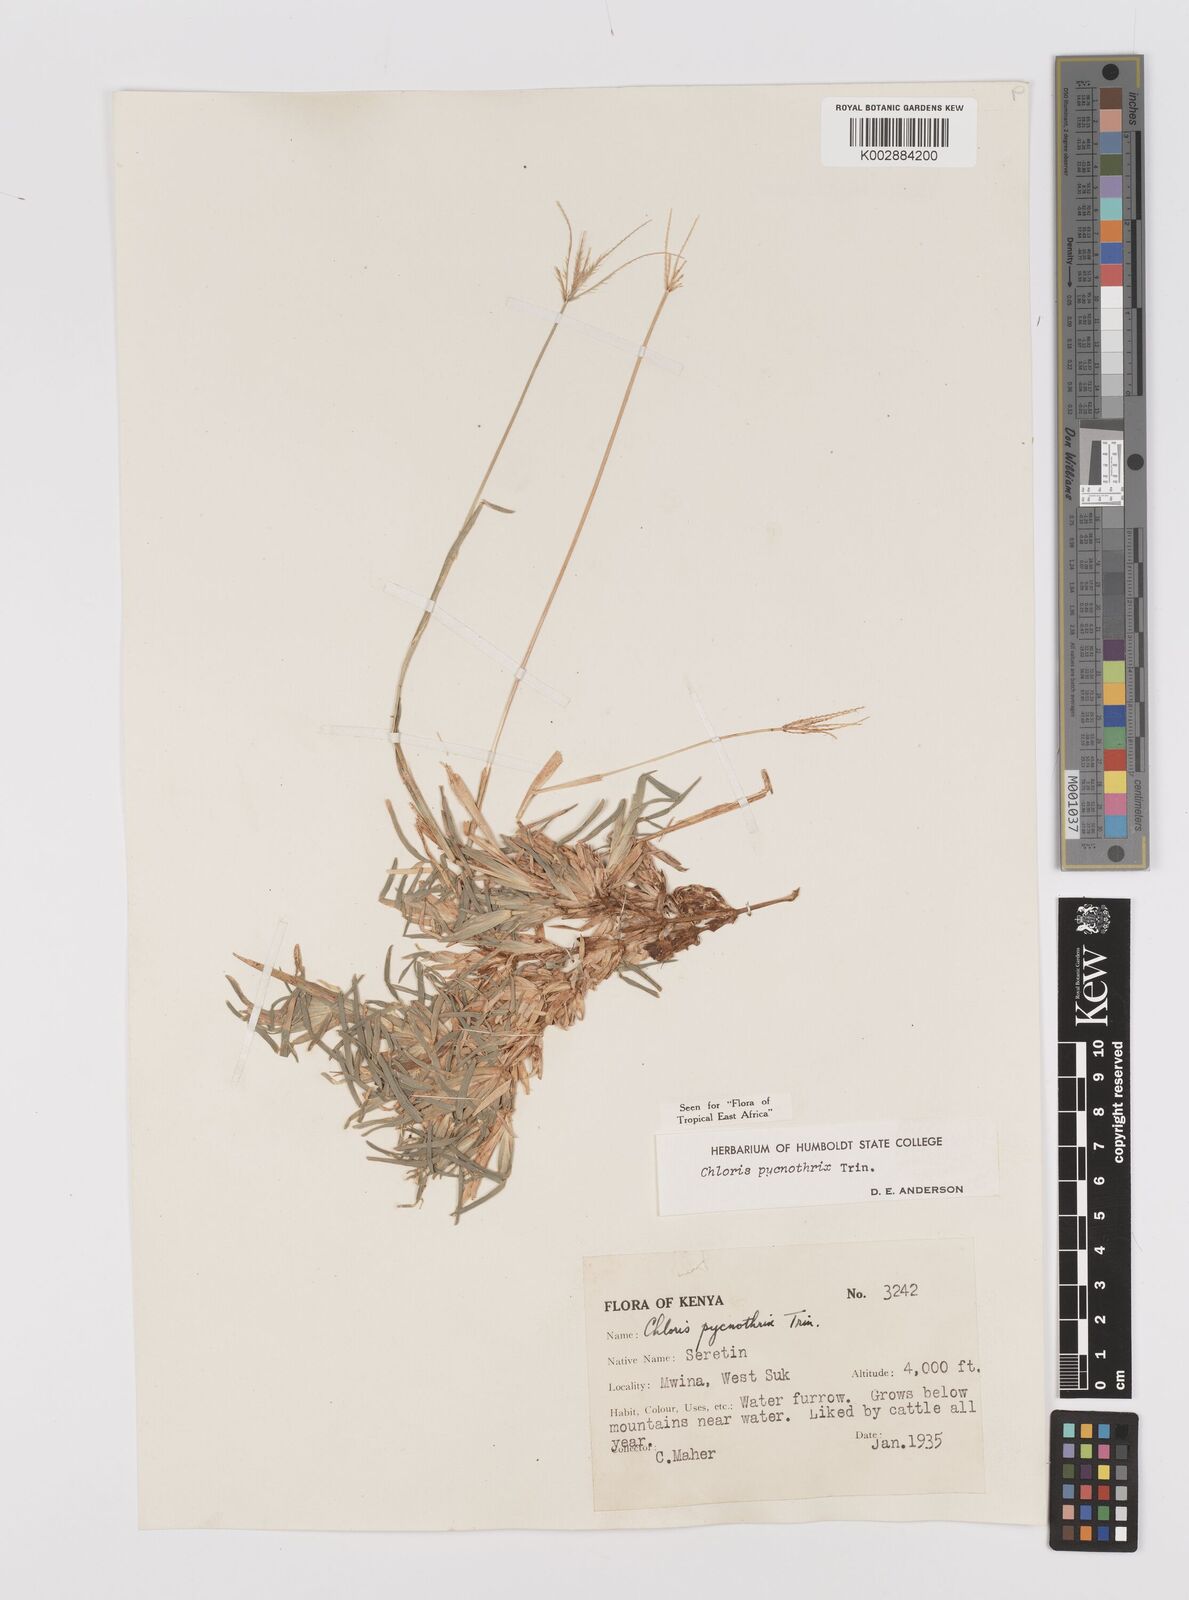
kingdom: Plantae
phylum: Tracheophyta
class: Liliopsida
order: Poales
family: Poaceae
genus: Chloris
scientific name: Chloris pycnothrix
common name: Spiderweb chloris
